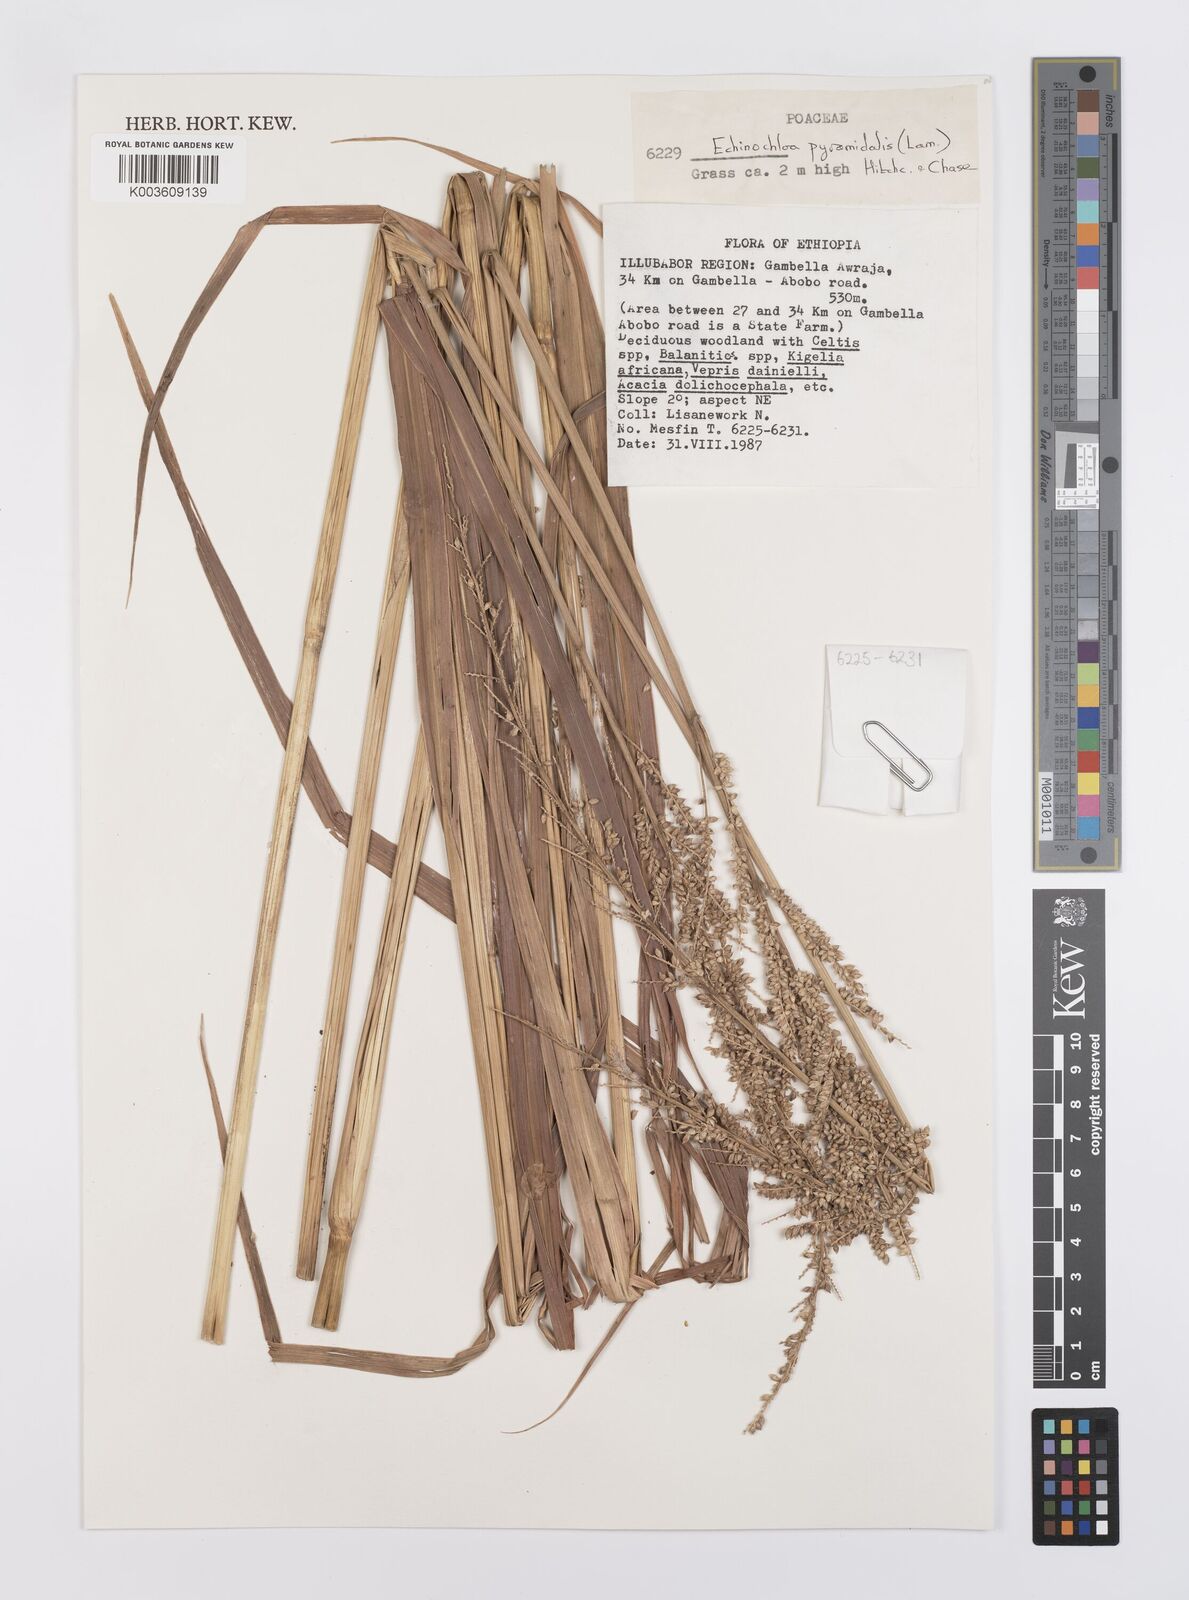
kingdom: Plantae
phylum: Tracheophyta
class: Liliopsida
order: Poales
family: Poaceae
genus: Echinochloa
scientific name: Echinochloa pyramidalis
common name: Antelope grass
